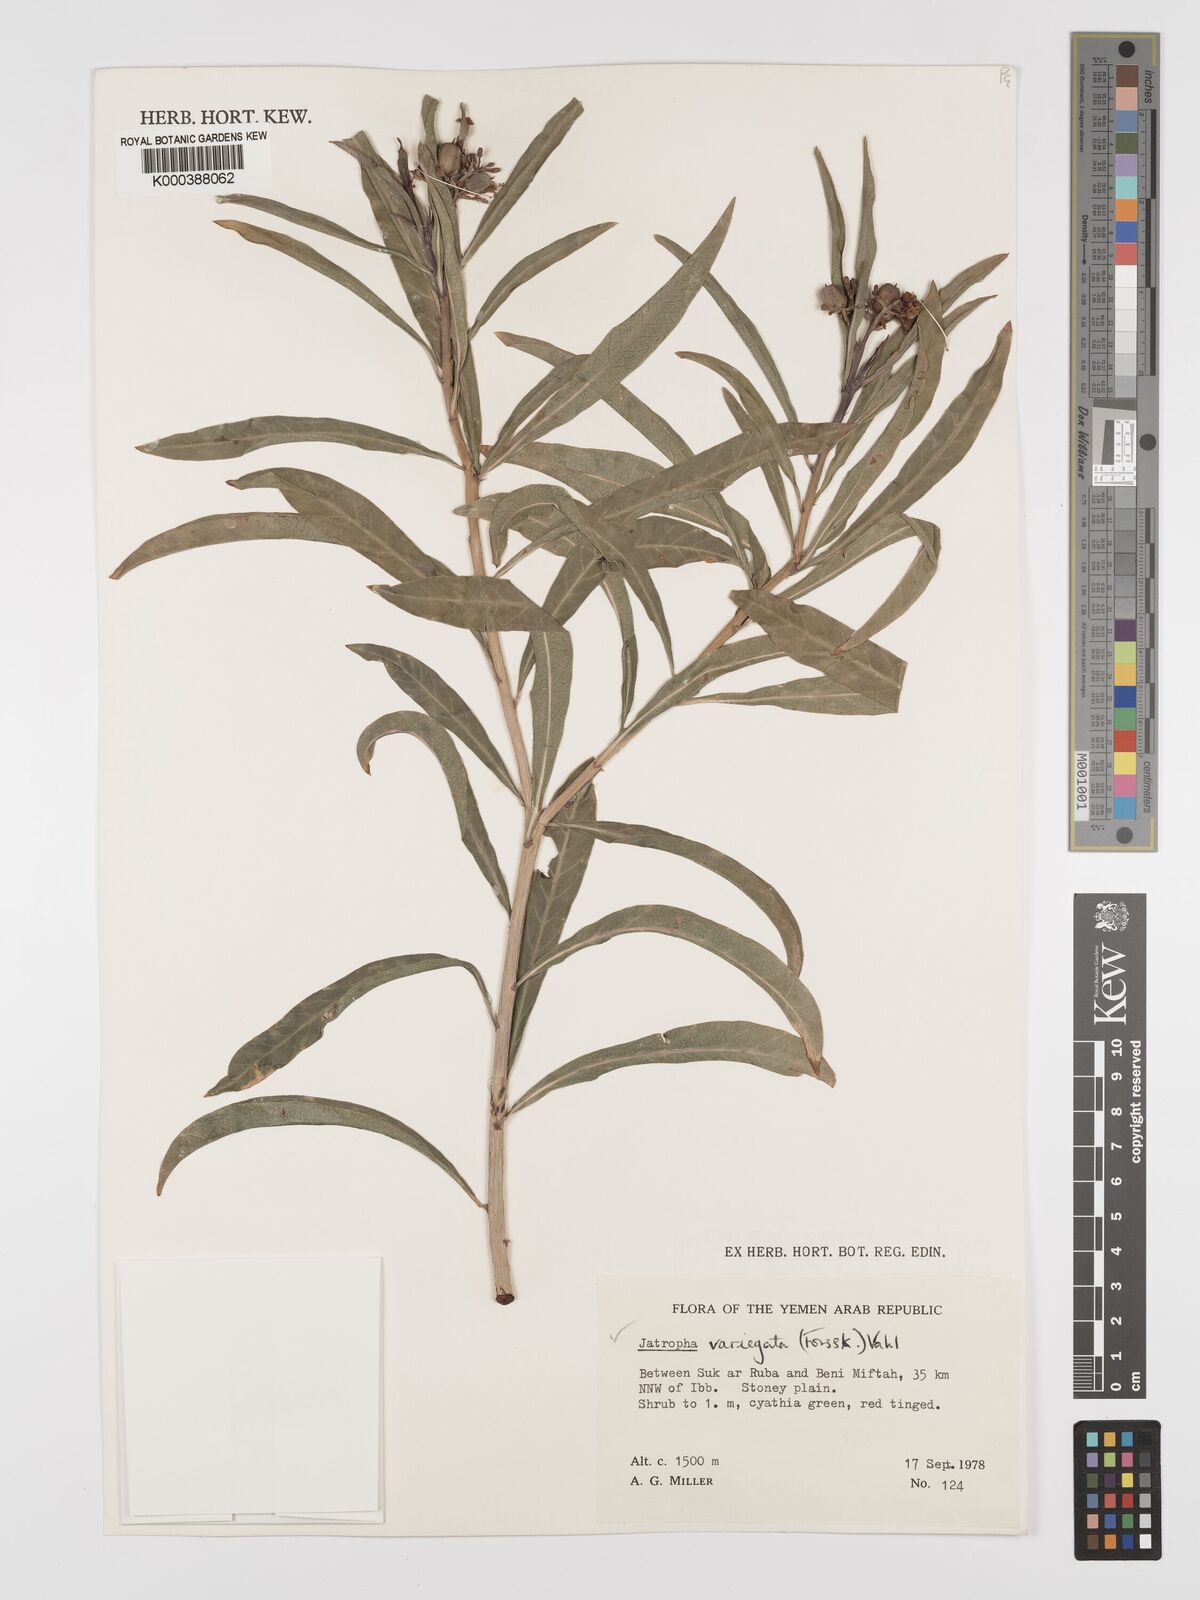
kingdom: Plantae
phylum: Tracheophyta
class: Magnoliopsida
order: Malpighiales
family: Euphorbiaceae
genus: Jatropha
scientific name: Jatropha uncinulata
